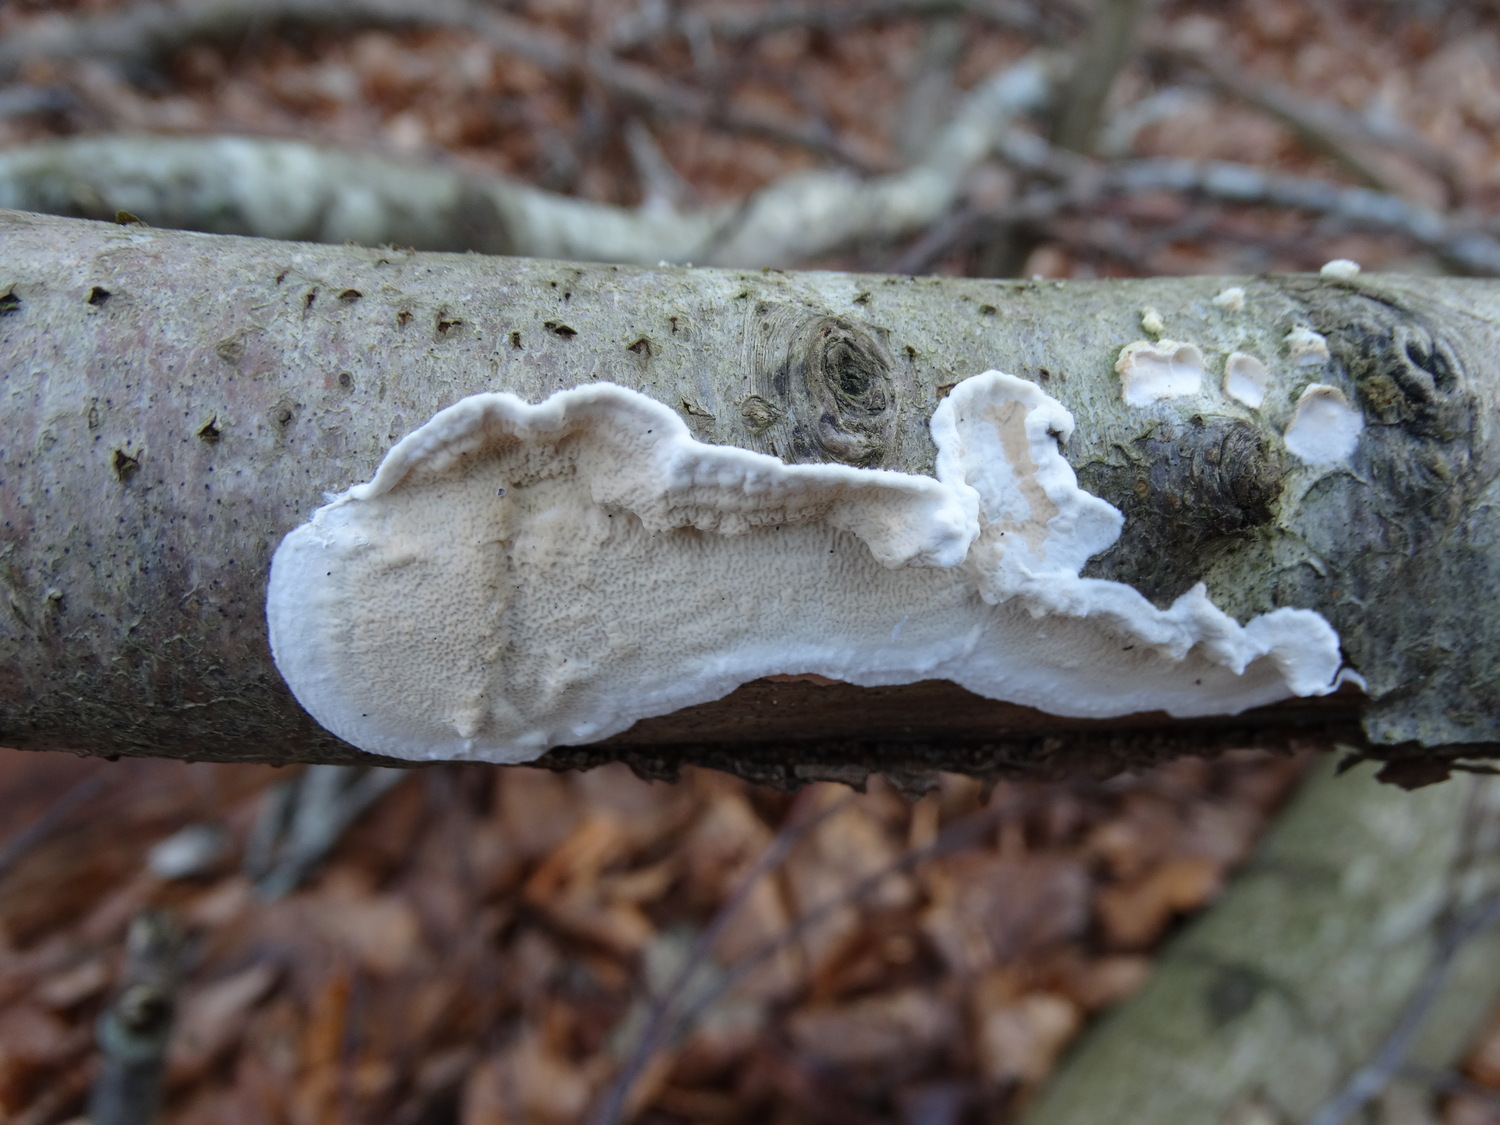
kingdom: Fungi
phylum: Basidiomycota
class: Agaricomycetes
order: Polyporales
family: Irpicaceae
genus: Byssomerulius
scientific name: Byssomerulius corium
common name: læder-åresvamp
